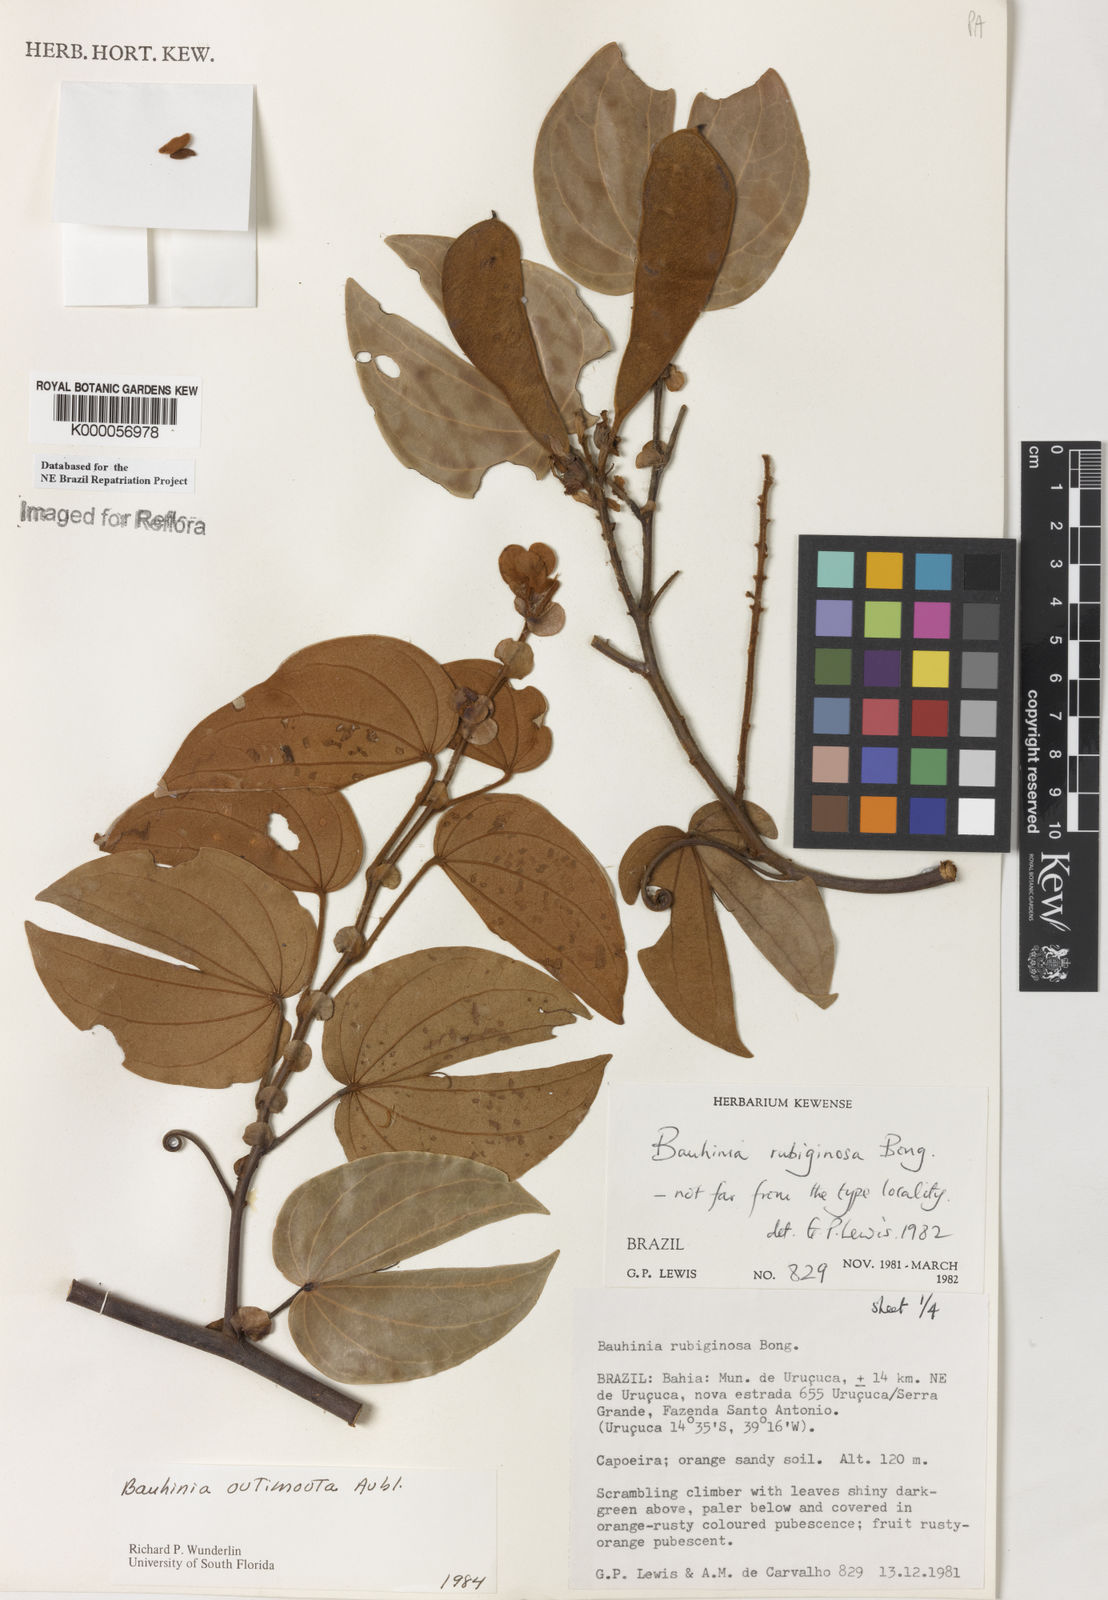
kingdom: Plantae
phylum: Tracheophyta
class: Magnoliopsida
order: Fabales
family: Fabaceae
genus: Schnella
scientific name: Schnella outimouta
